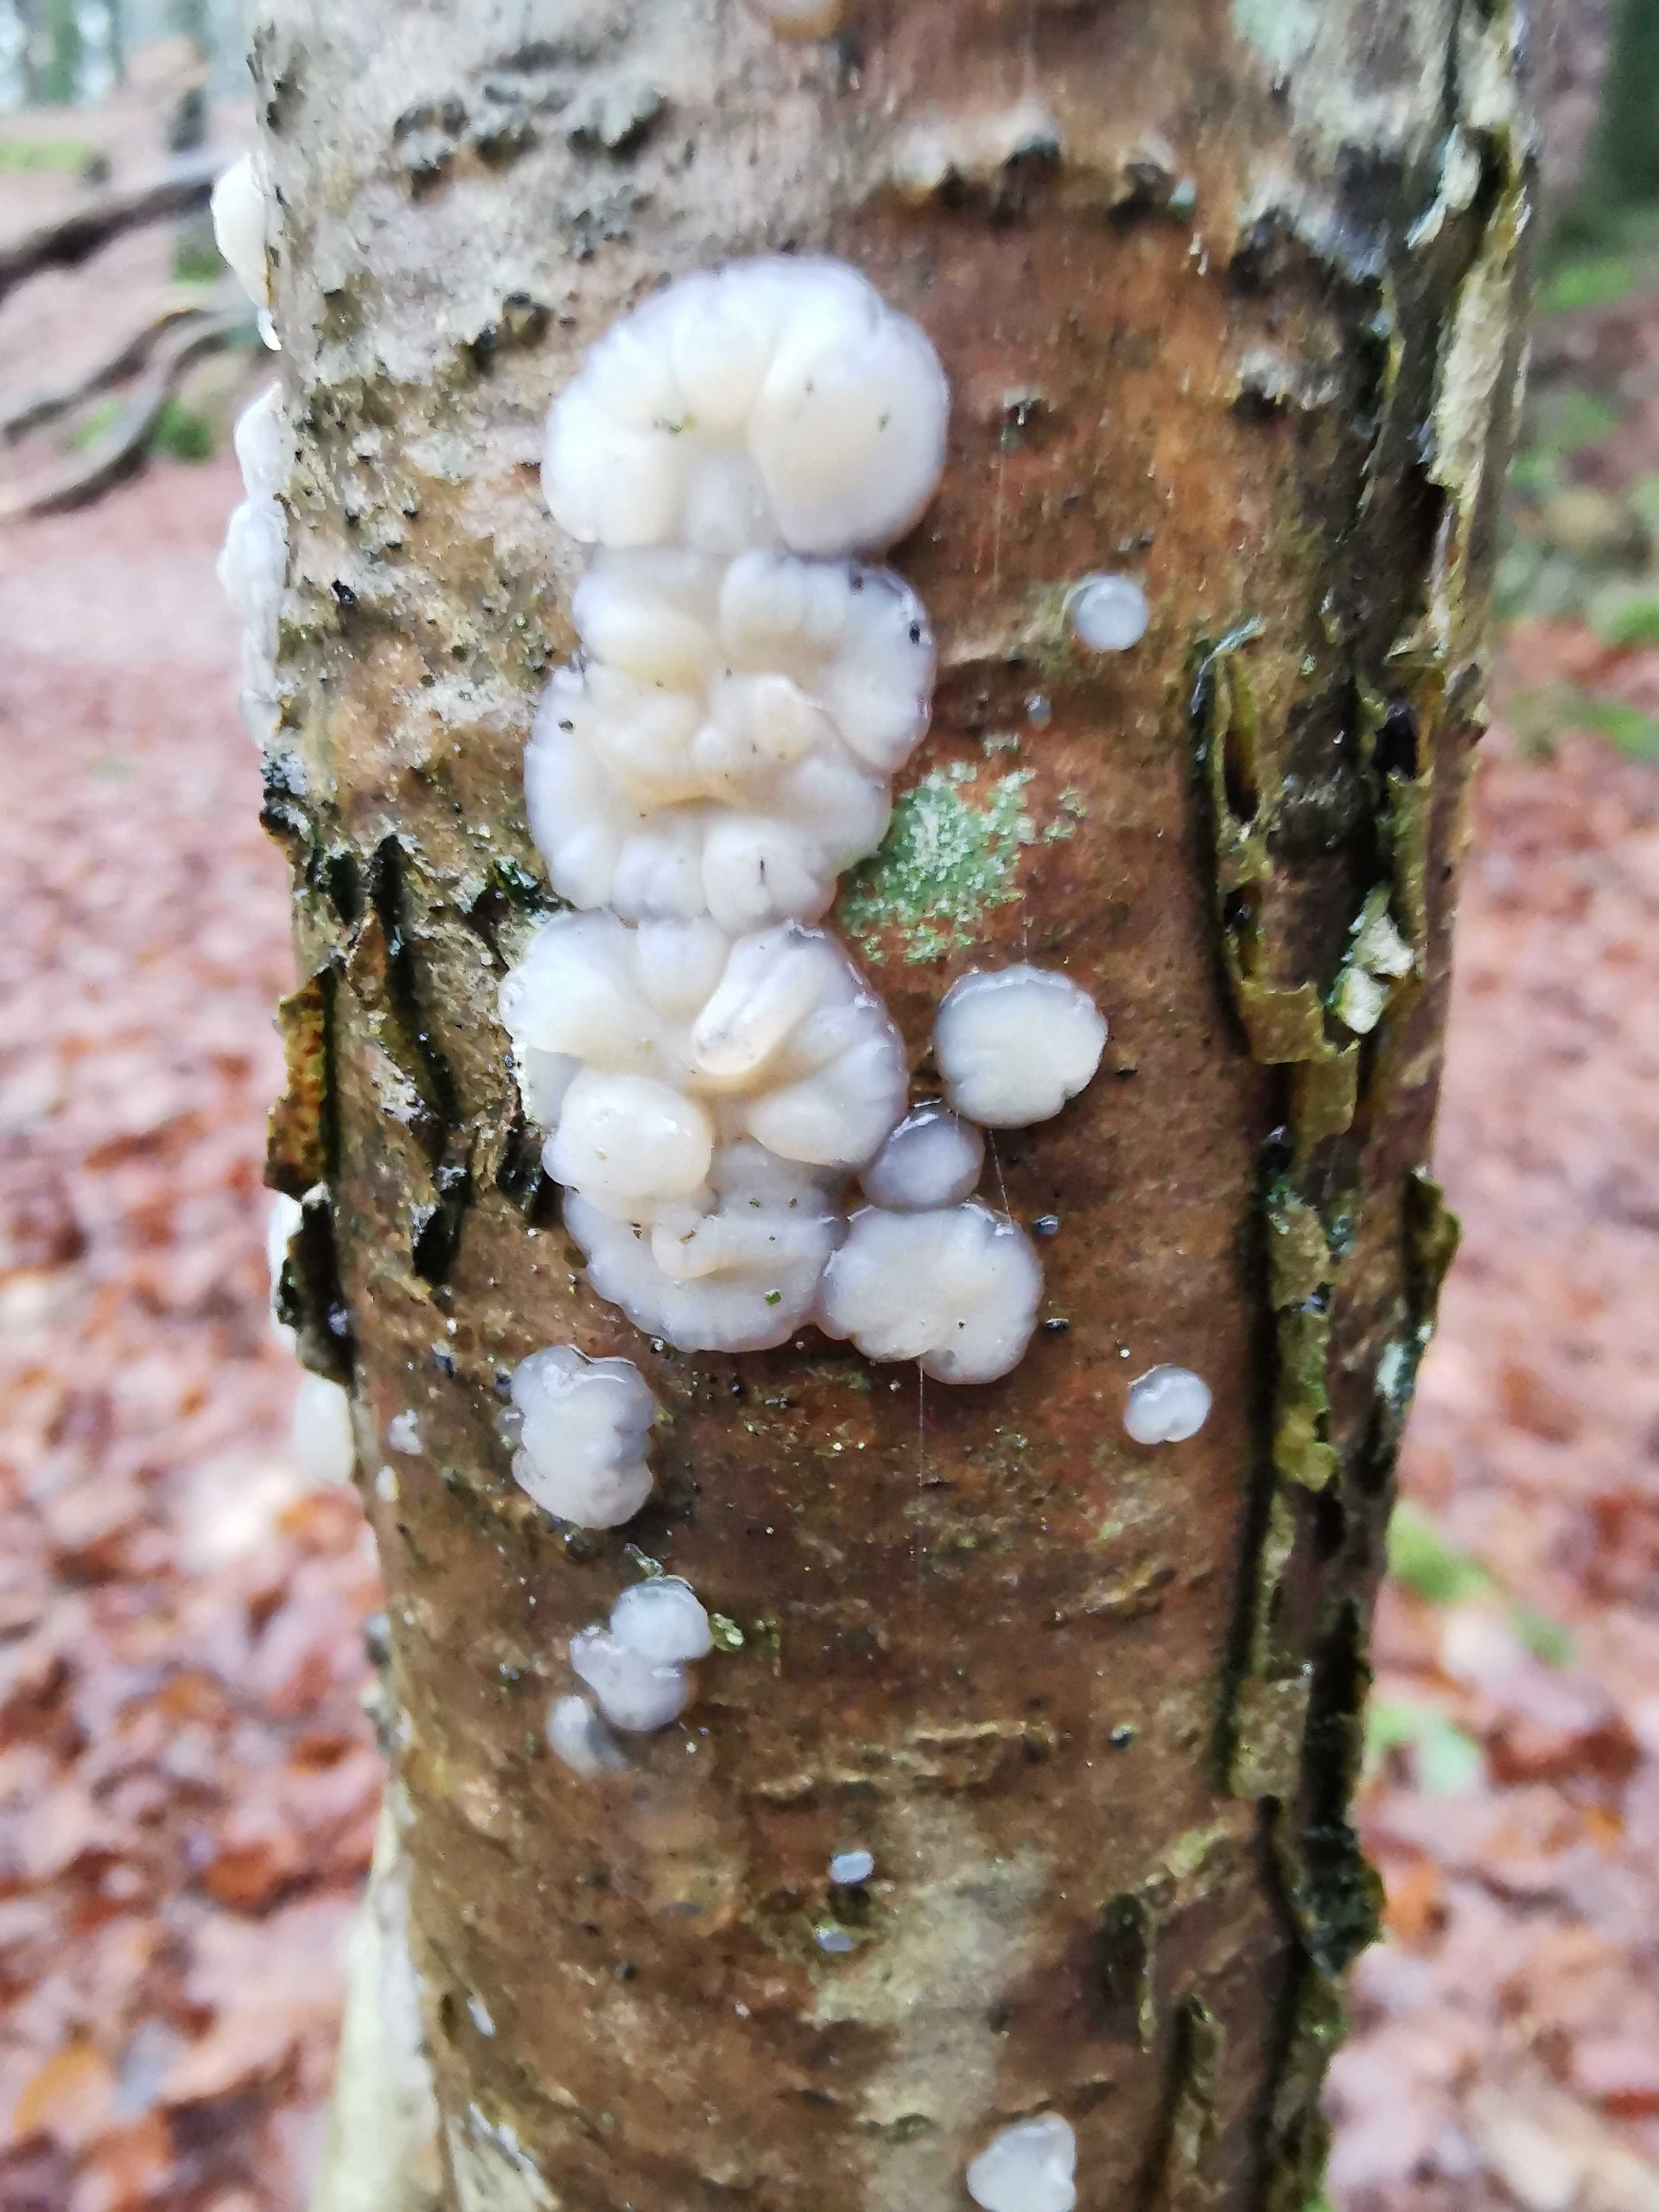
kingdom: Fungi
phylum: Basidiomycota
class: Agaricomycetes
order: Auriculariales
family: Auriculariaceae
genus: Exidia
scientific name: Exidia thuretiana
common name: hvidlig bævretop
